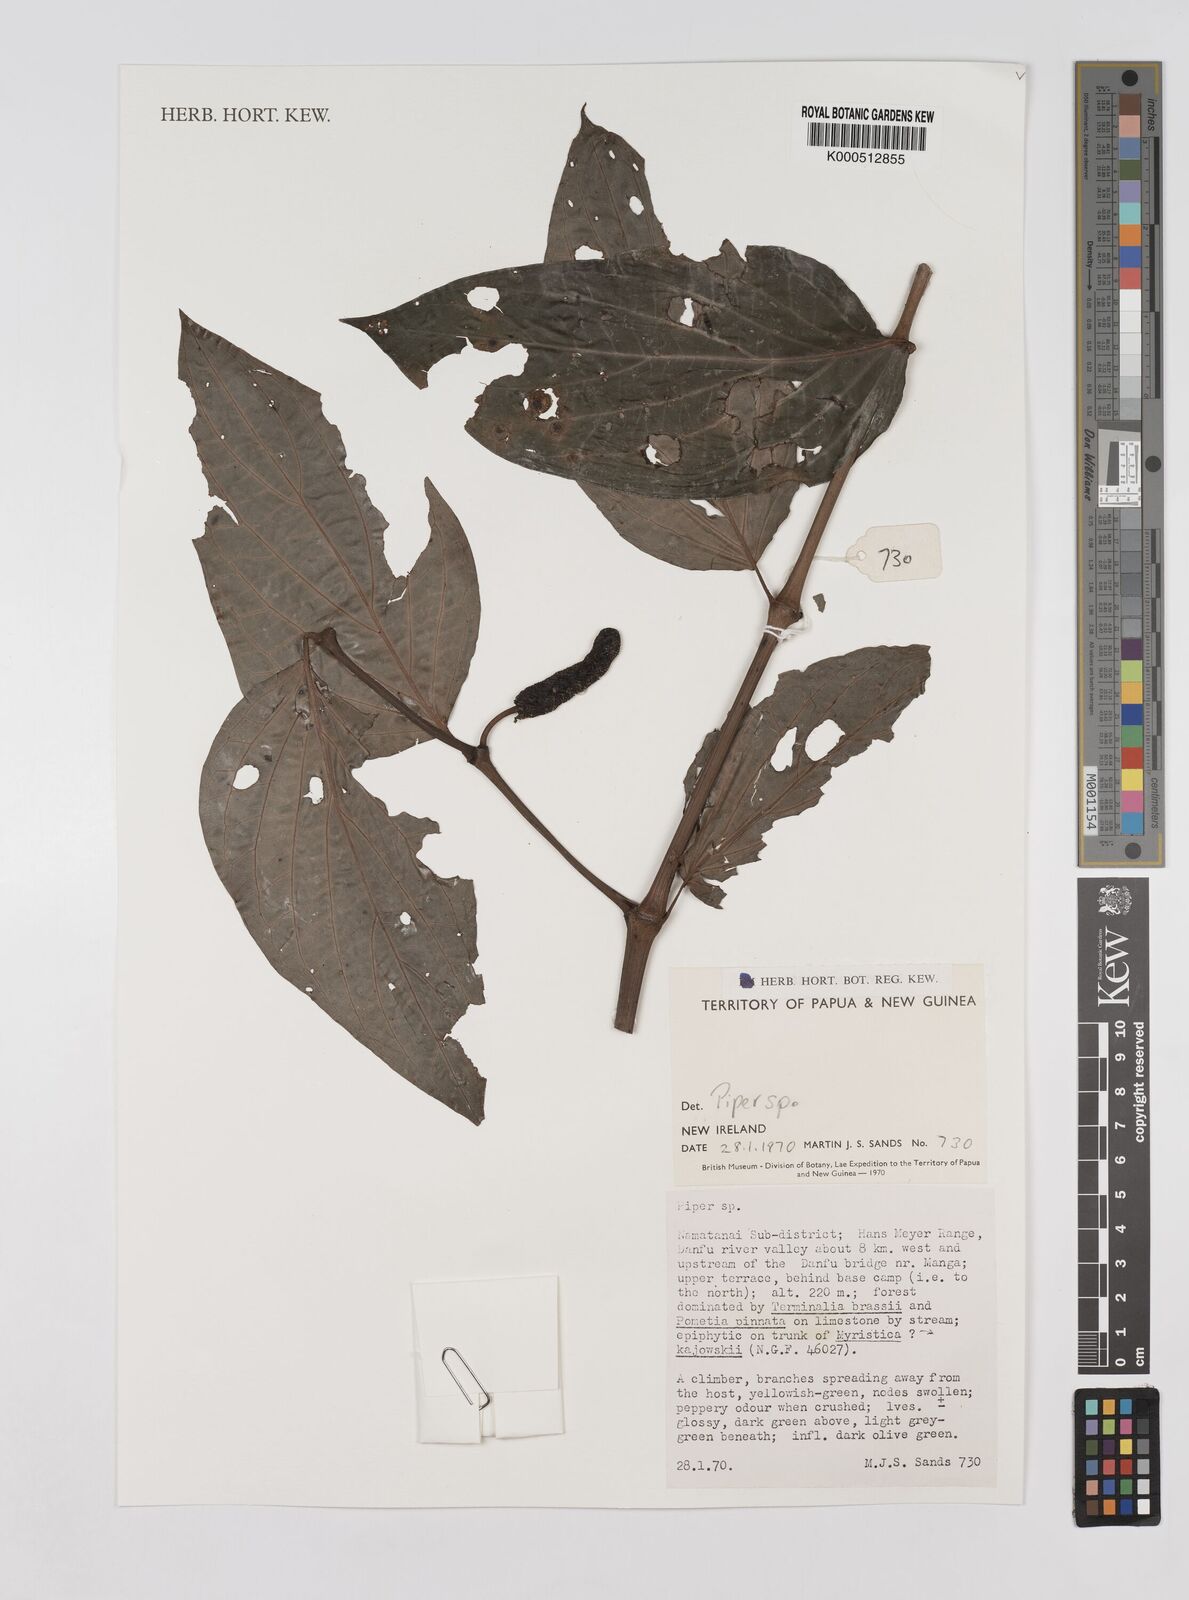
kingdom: Plantae
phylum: Tracheophyta
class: Magnoliopsida
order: Piperales
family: Piperaceae
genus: Piper
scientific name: Piper
